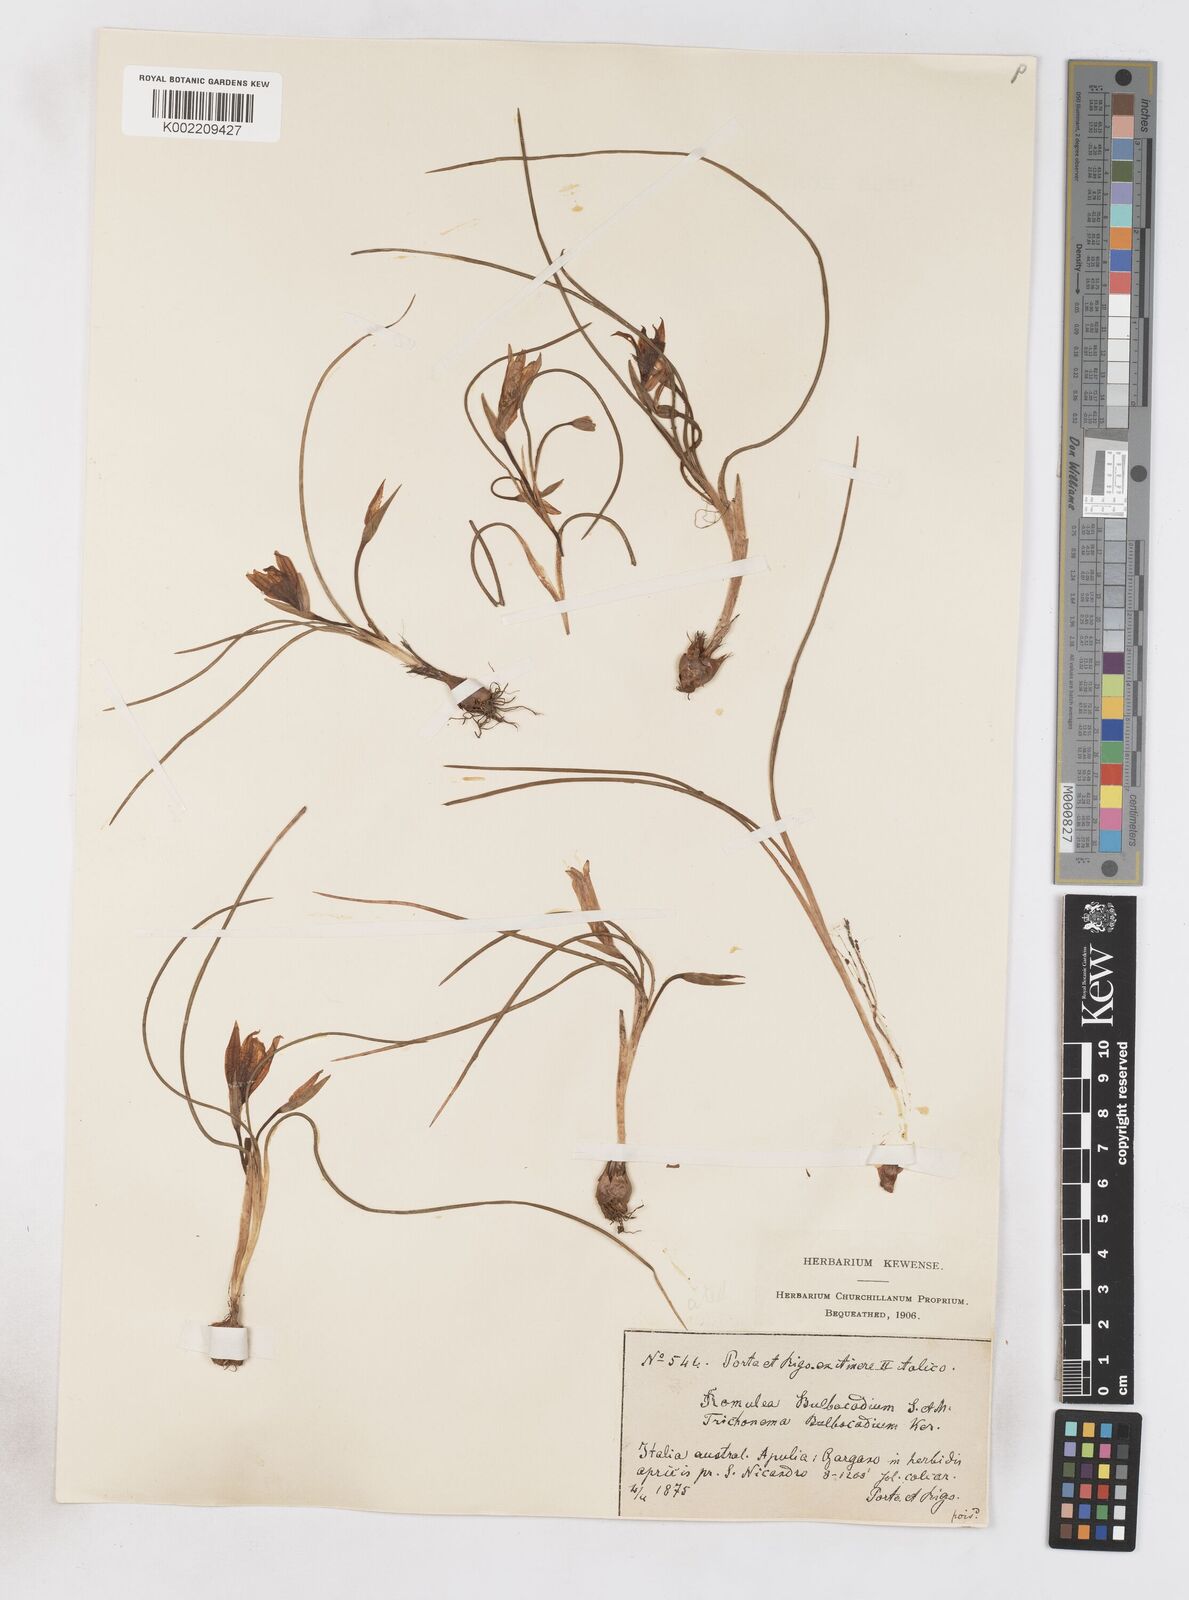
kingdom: Plantae
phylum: Tracheophyta
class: Liliopsida
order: Asparagales
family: Iridaceae
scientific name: Iridaceae
